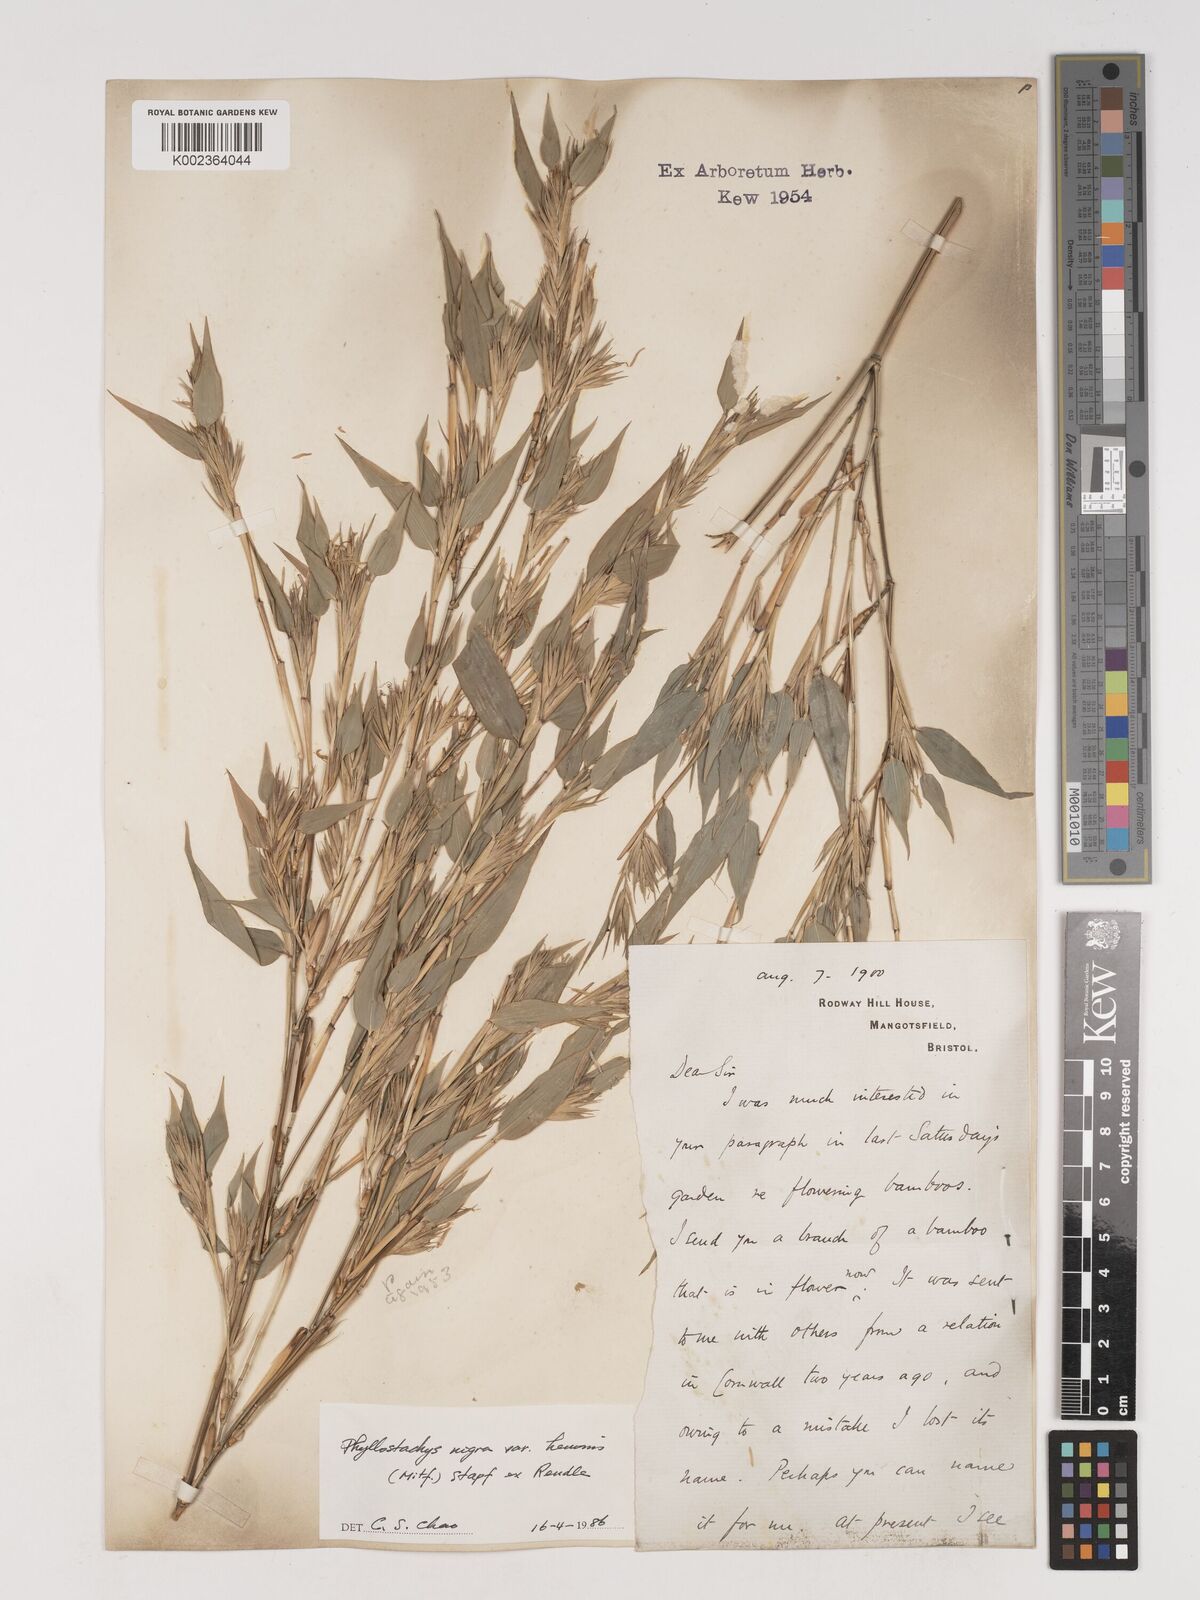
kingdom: Plantae
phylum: Tracheophyta
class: Liliopsida
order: Poales
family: Poaceae
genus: Phyllostachys
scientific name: Phyllostachys nigra
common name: Black bamboo
